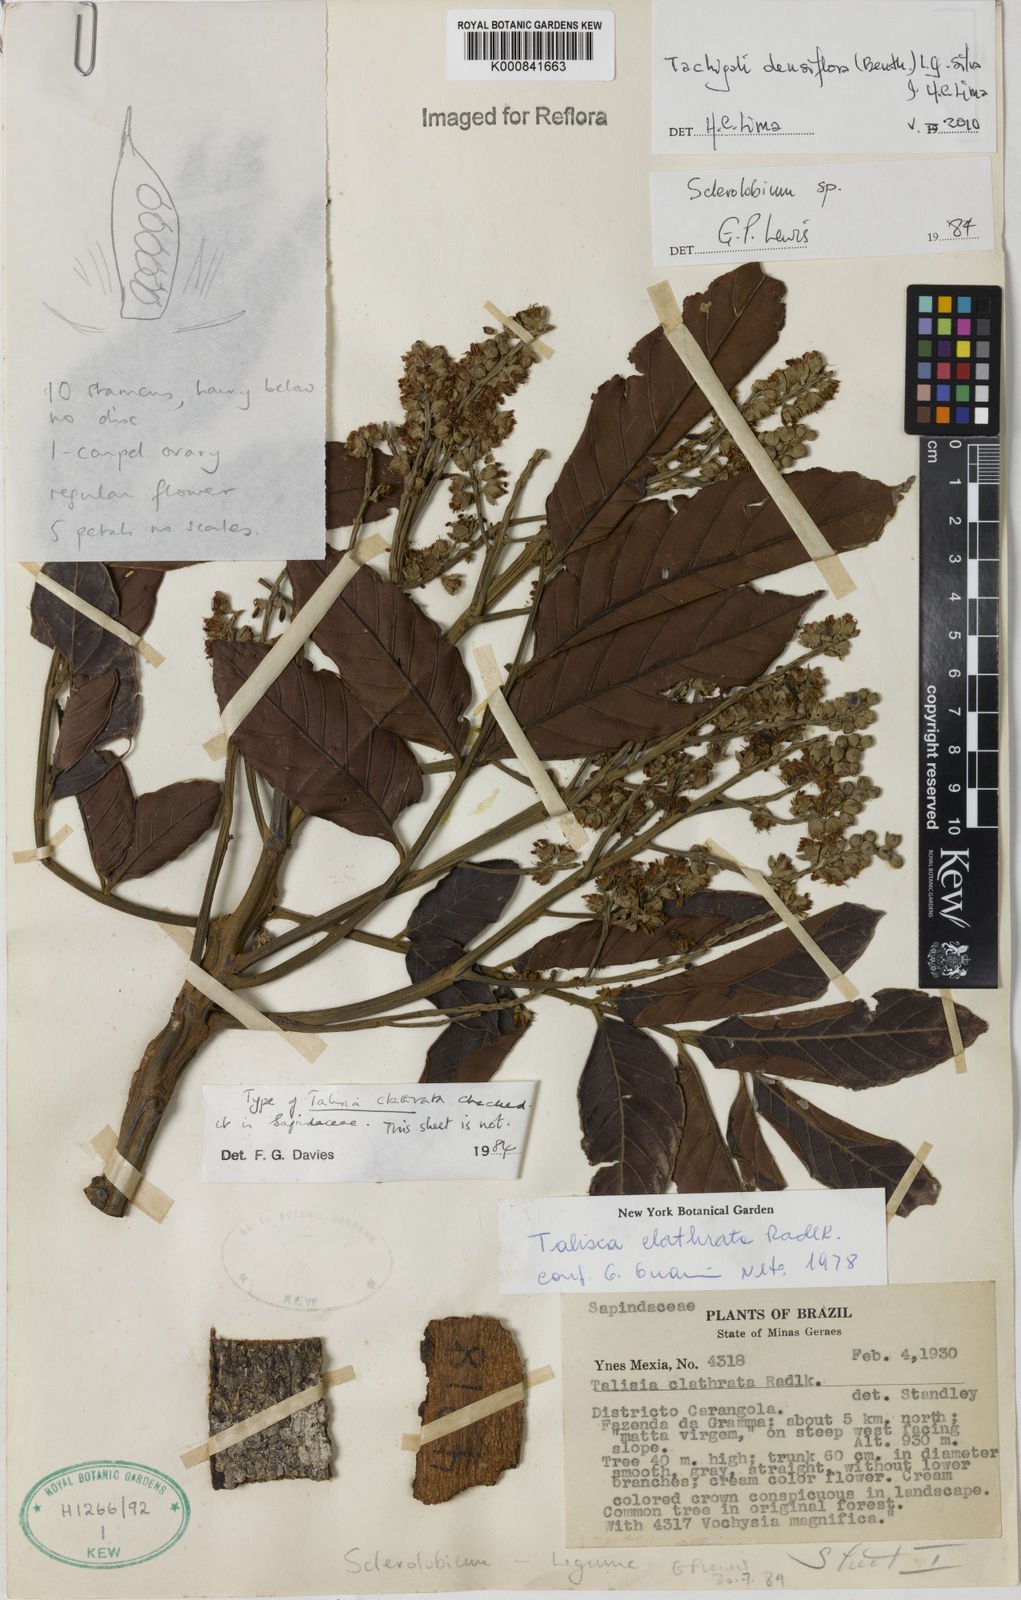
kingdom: Plantae
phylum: Tracheophyta
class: Magnoliopsida
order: Fabales
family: Fabaceae
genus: Tachigali
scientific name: Tachigali densiflora
